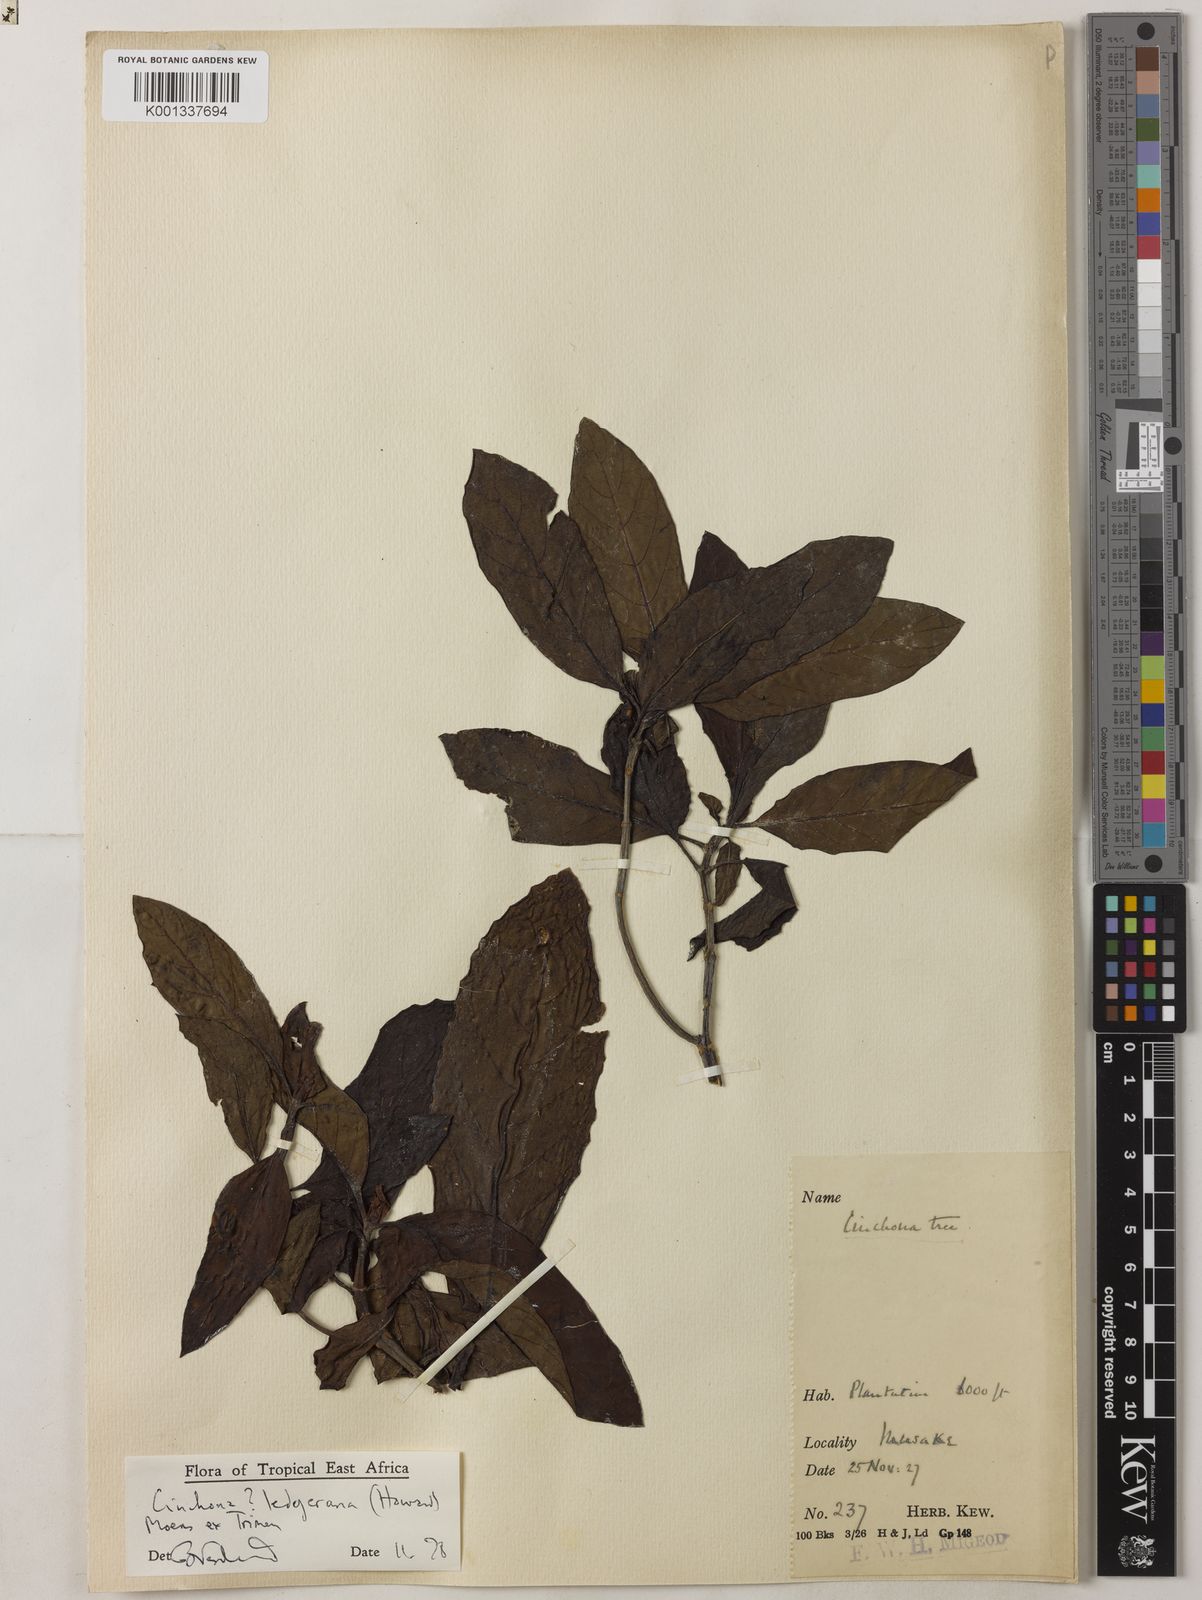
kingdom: Plantae
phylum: Tracheophyta
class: Magnoliopsida
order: Gentianales
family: Rubiaceae
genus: Cinchona
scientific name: Cinchona calisaya
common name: Ledgerbark
